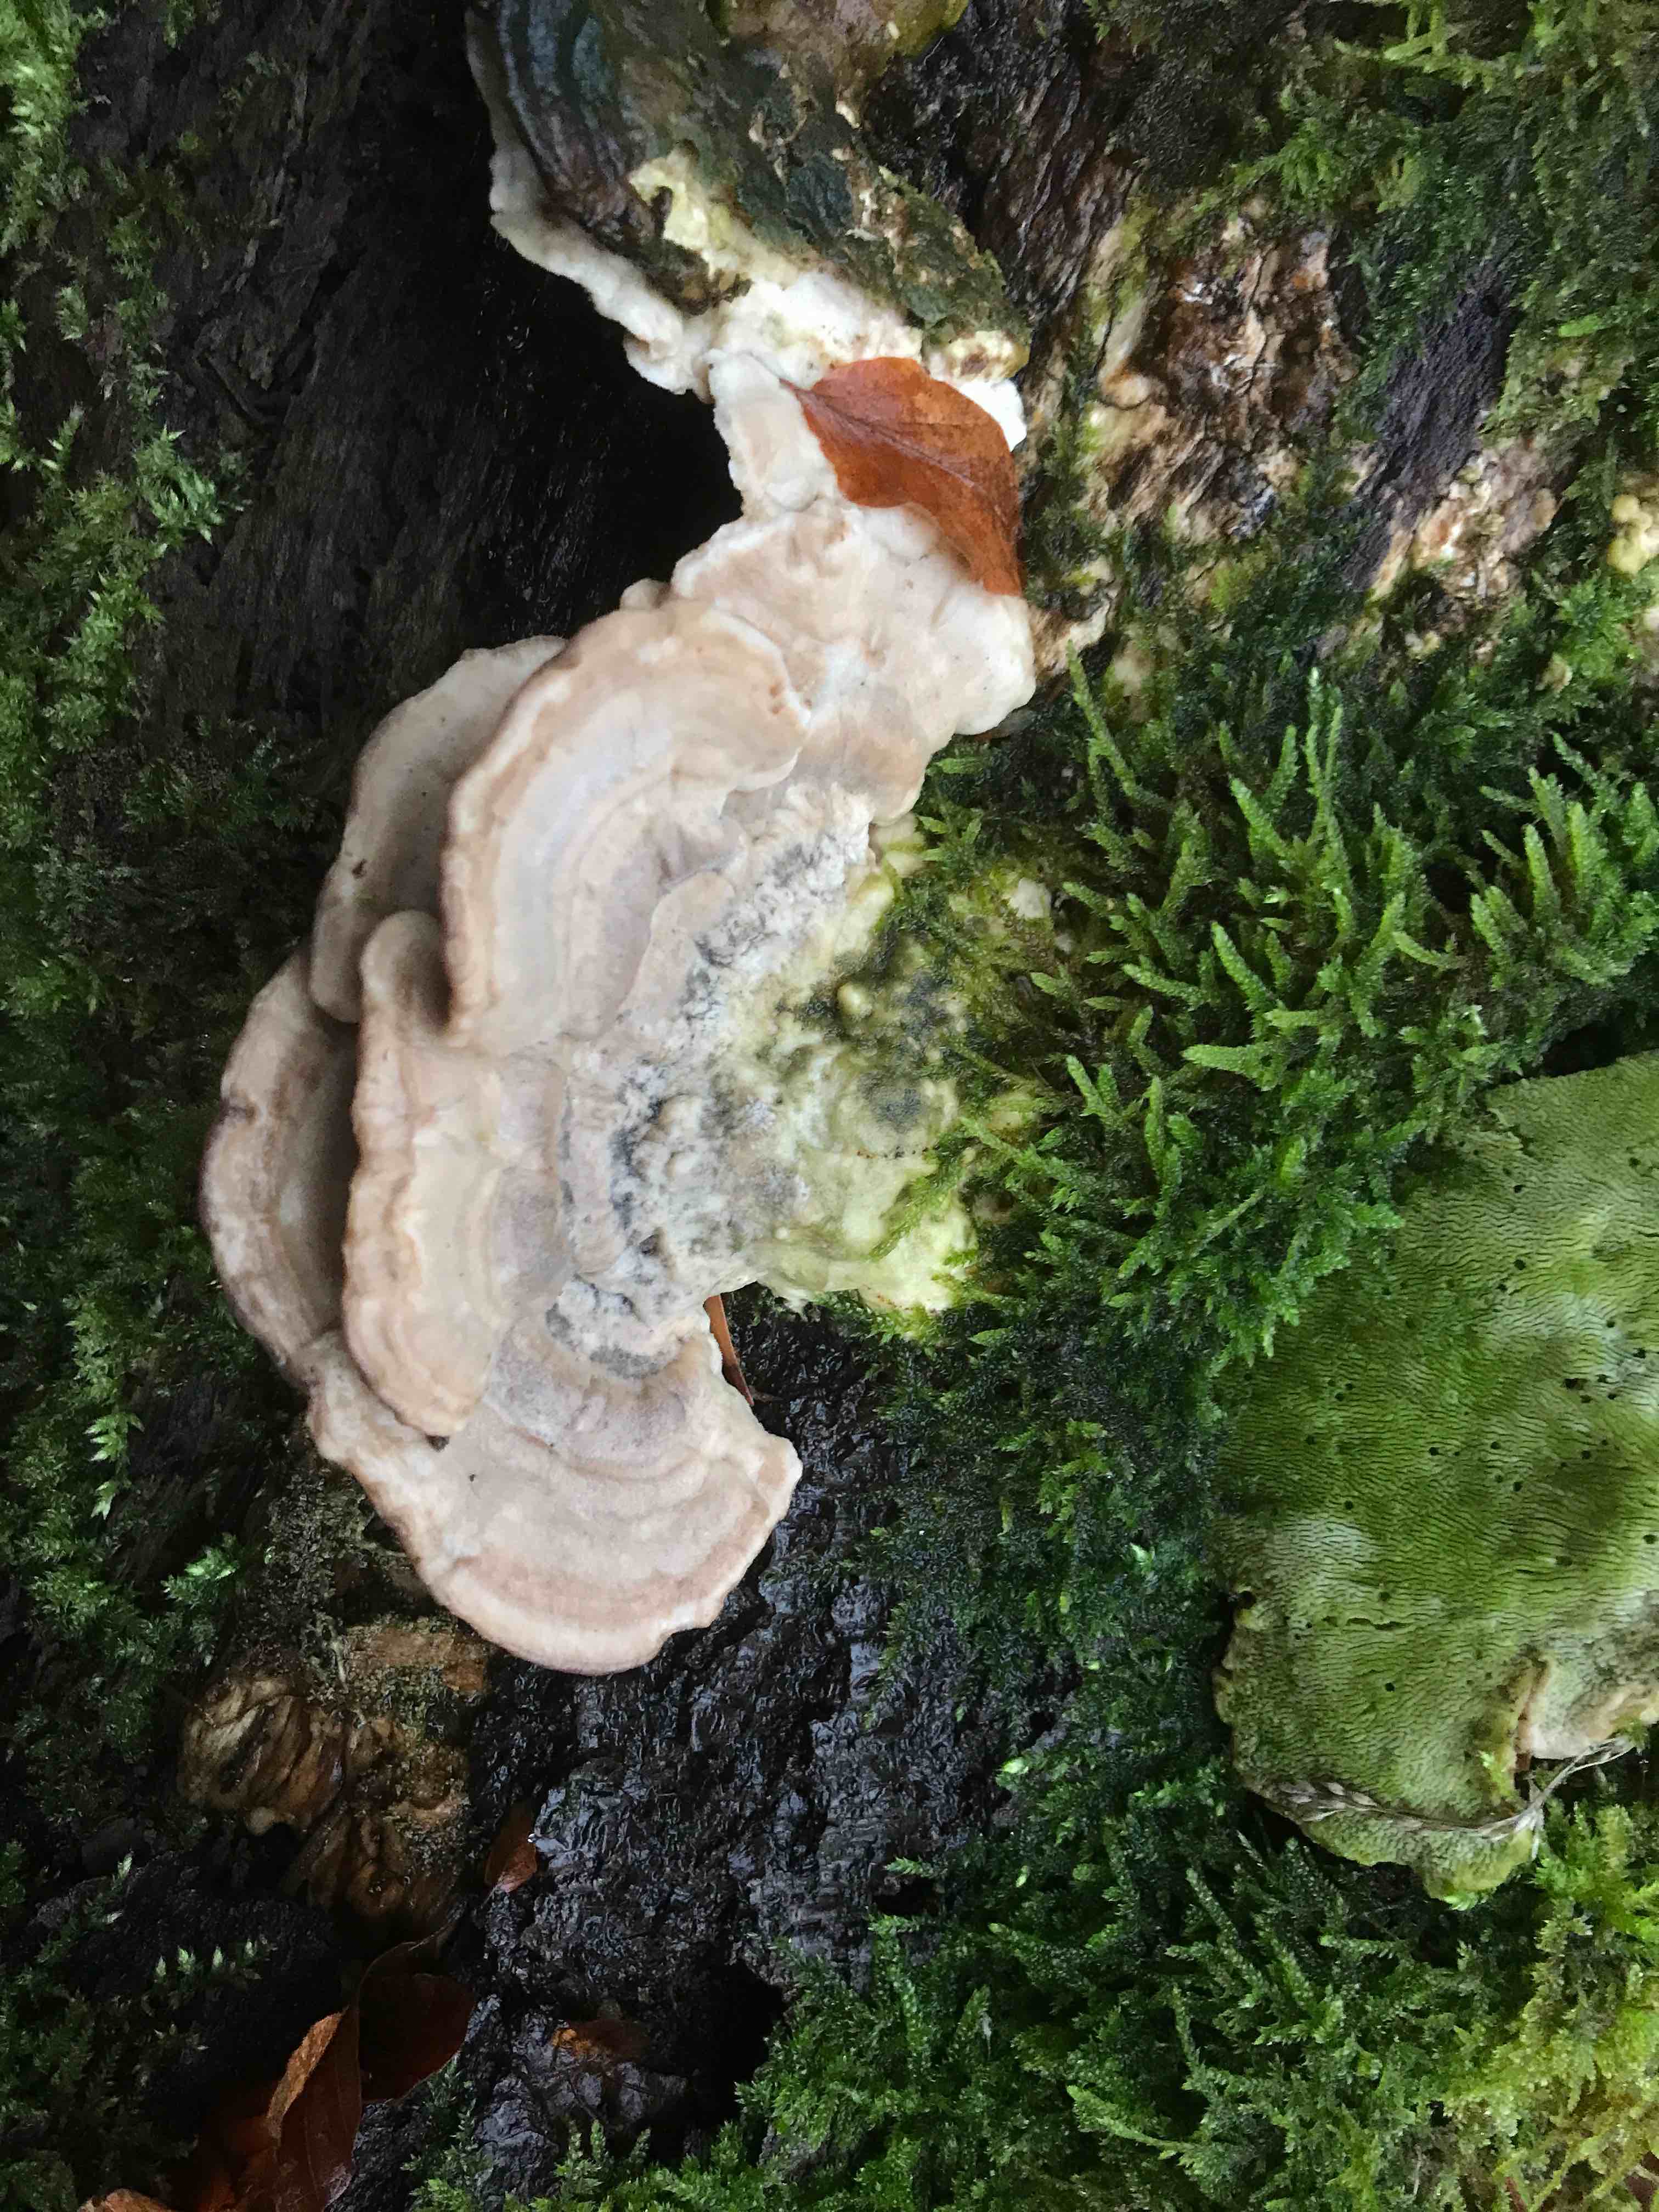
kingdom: Fungi
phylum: Basidiomycota
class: Agaricomycetes
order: Polyporales
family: Polyporaceae
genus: Trametes
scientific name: Trametes gibbosa
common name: puklet læderporesvamp
